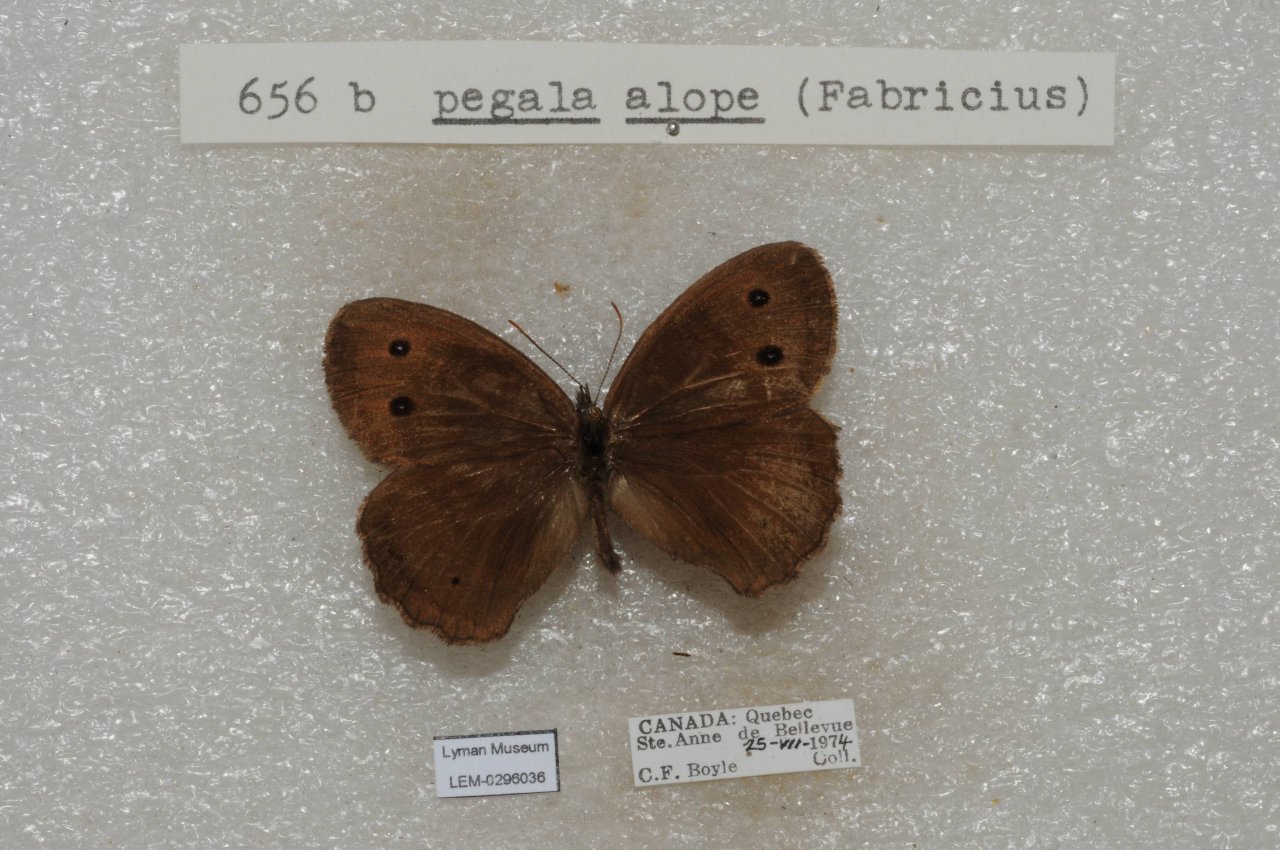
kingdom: Animalia
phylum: Arthropoda
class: Insecta
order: Lepidoptera
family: Nymphalidae
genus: Cercyonis
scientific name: Cercyonis pegala
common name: Common Wood-Nymph
